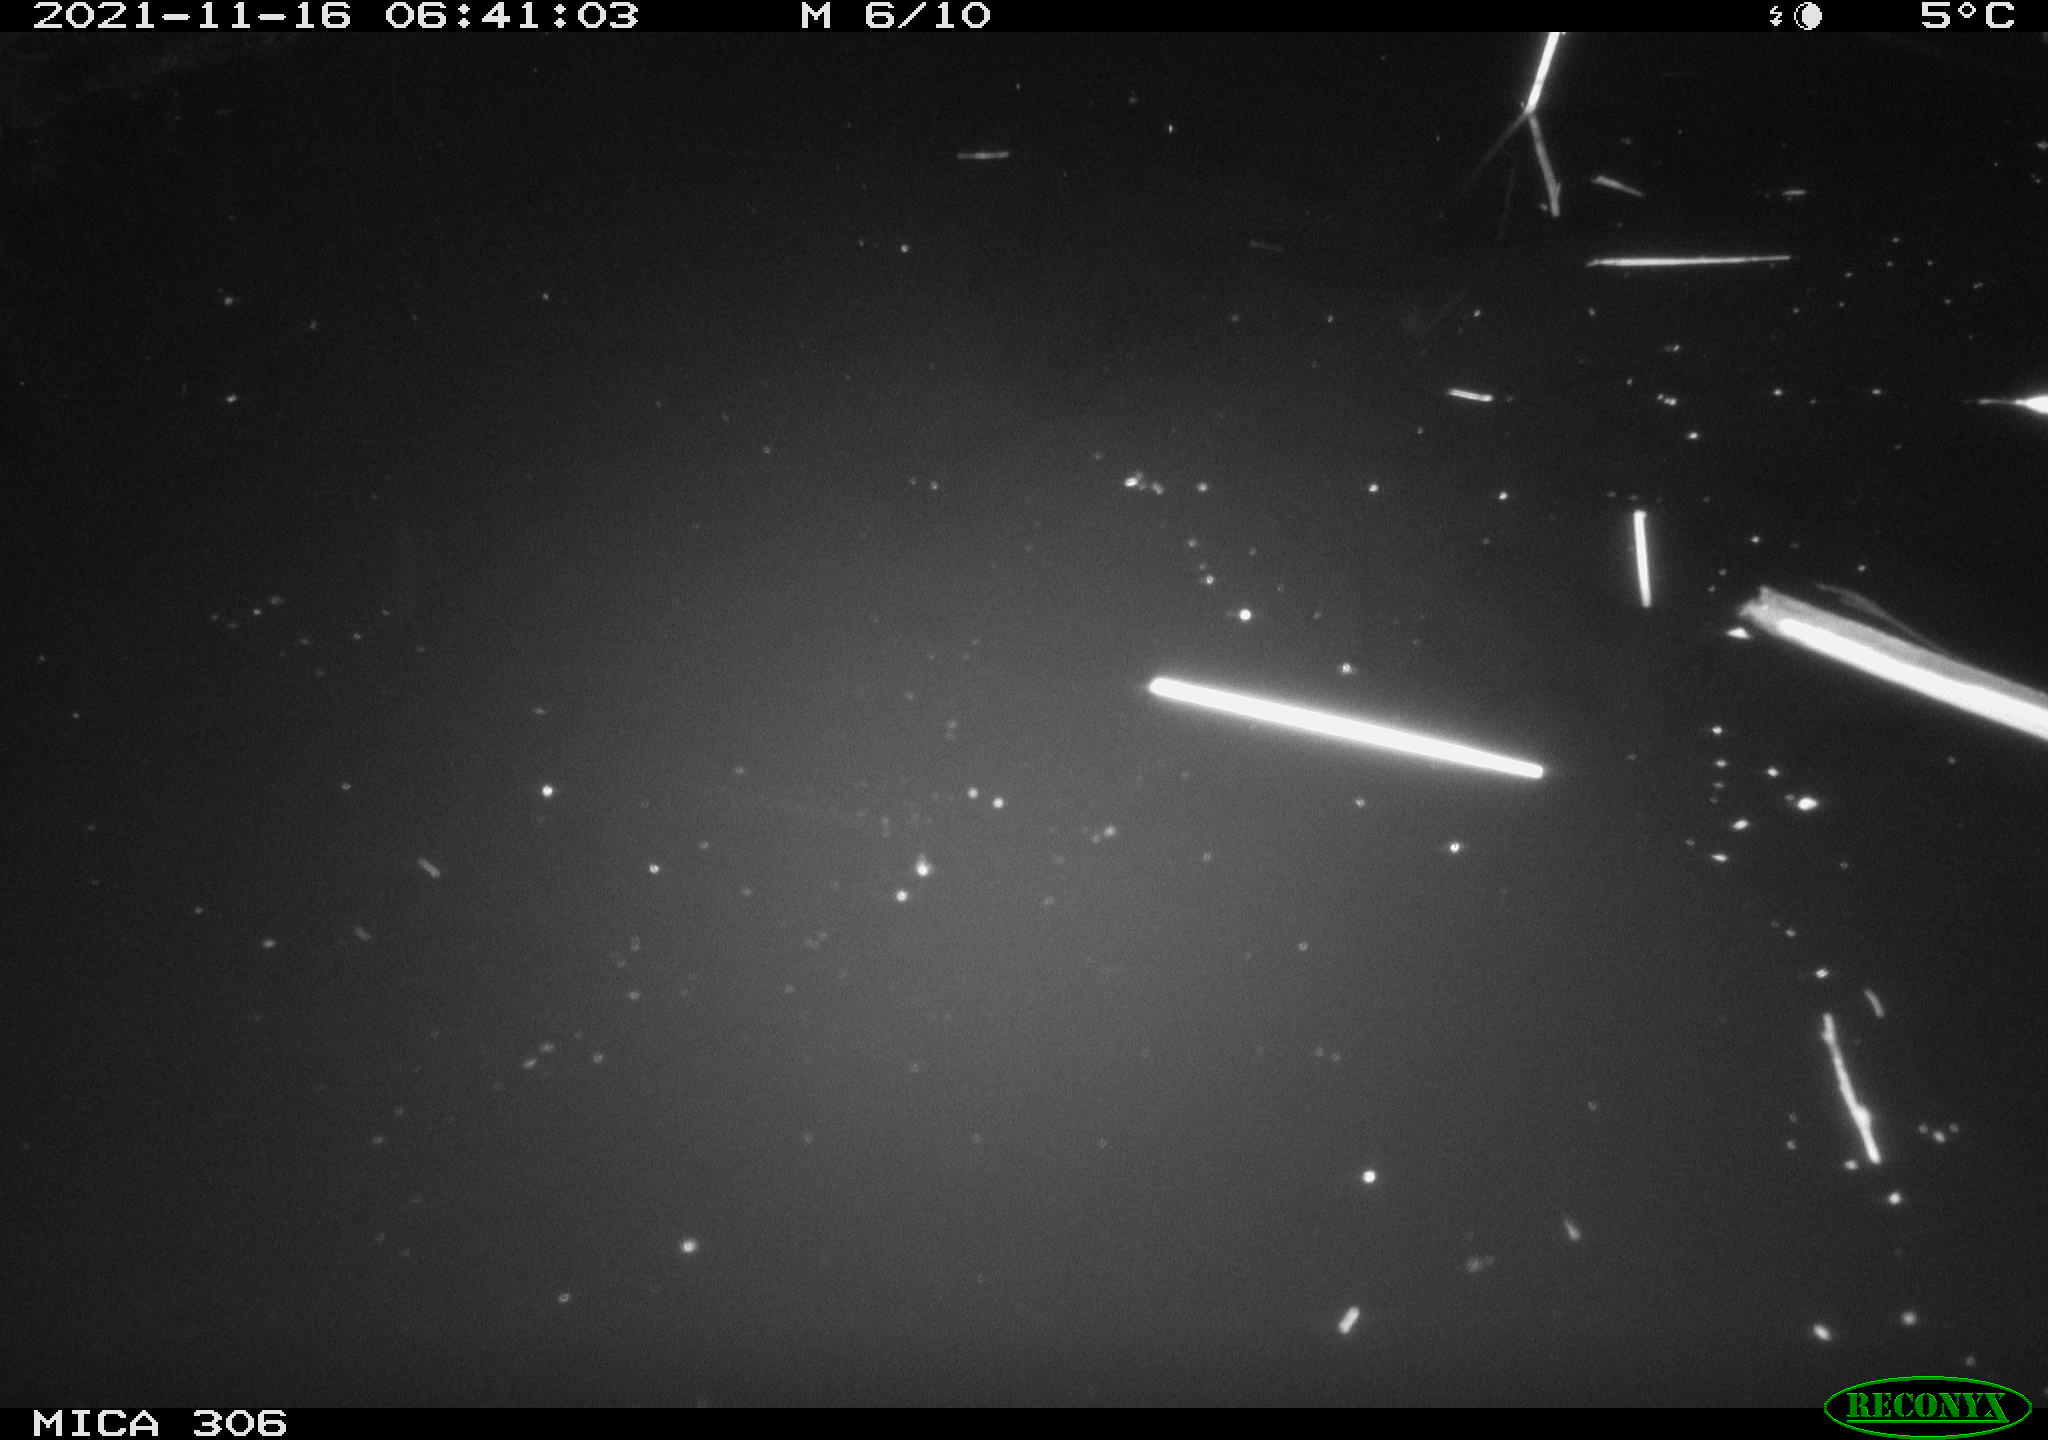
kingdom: Animalia
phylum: Chordata
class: Mammalia
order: Rodentia
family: Muridae
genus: Rattus
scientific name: Rattus norvegicus
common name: Brown rat
